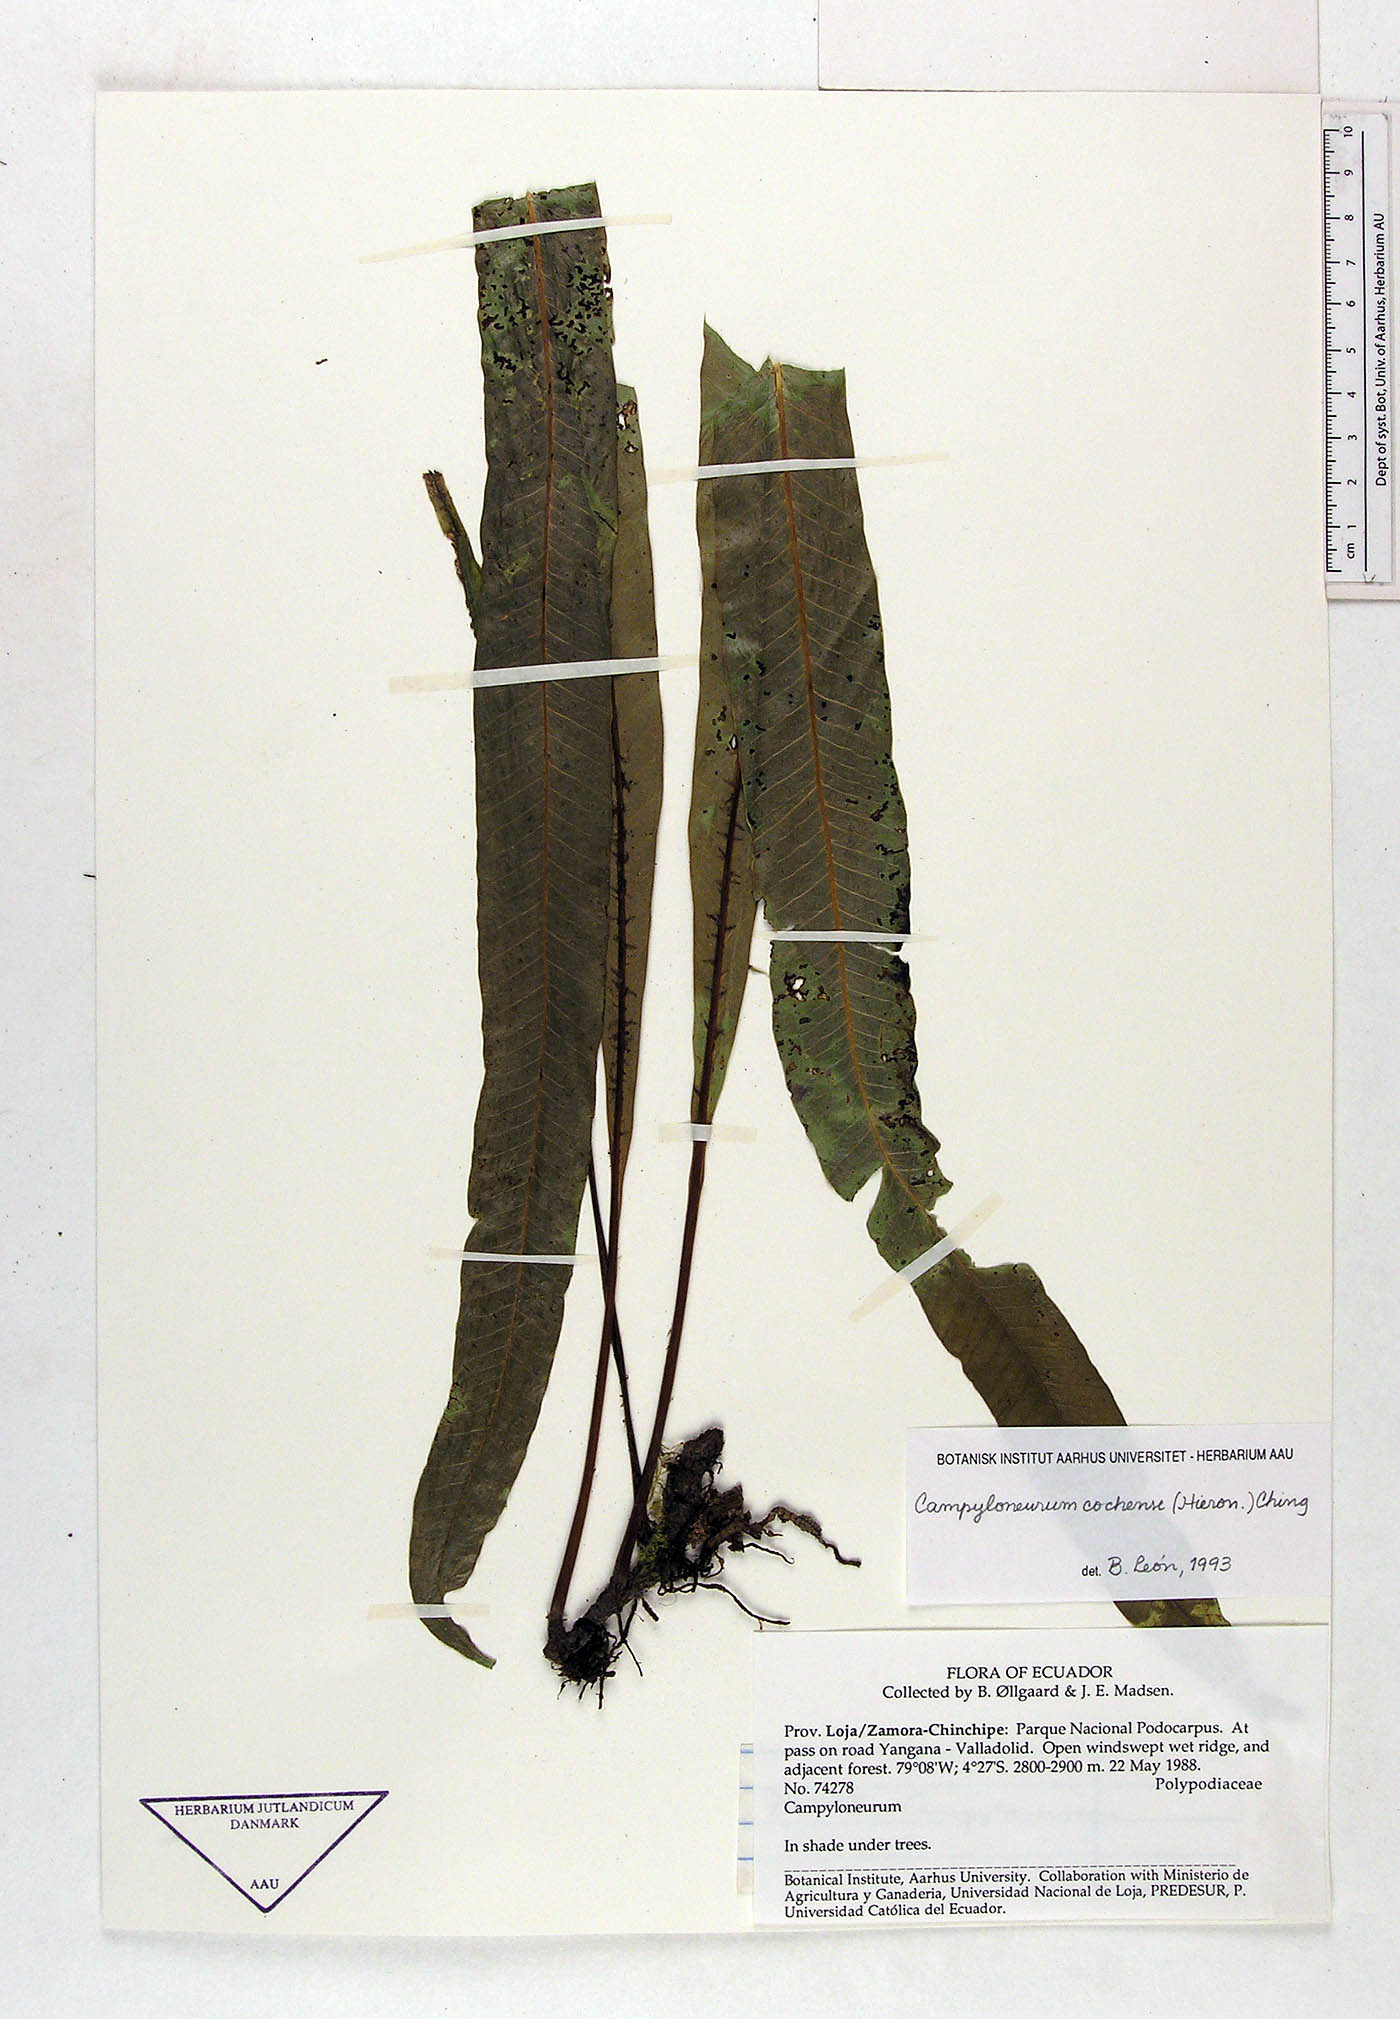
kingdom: Plantae
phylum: Tracheophyta
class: Polypodiopsida
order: Polypodiales
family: Polypodiaceae
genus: Campyloneurum
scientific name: Campyloneurum cochense
